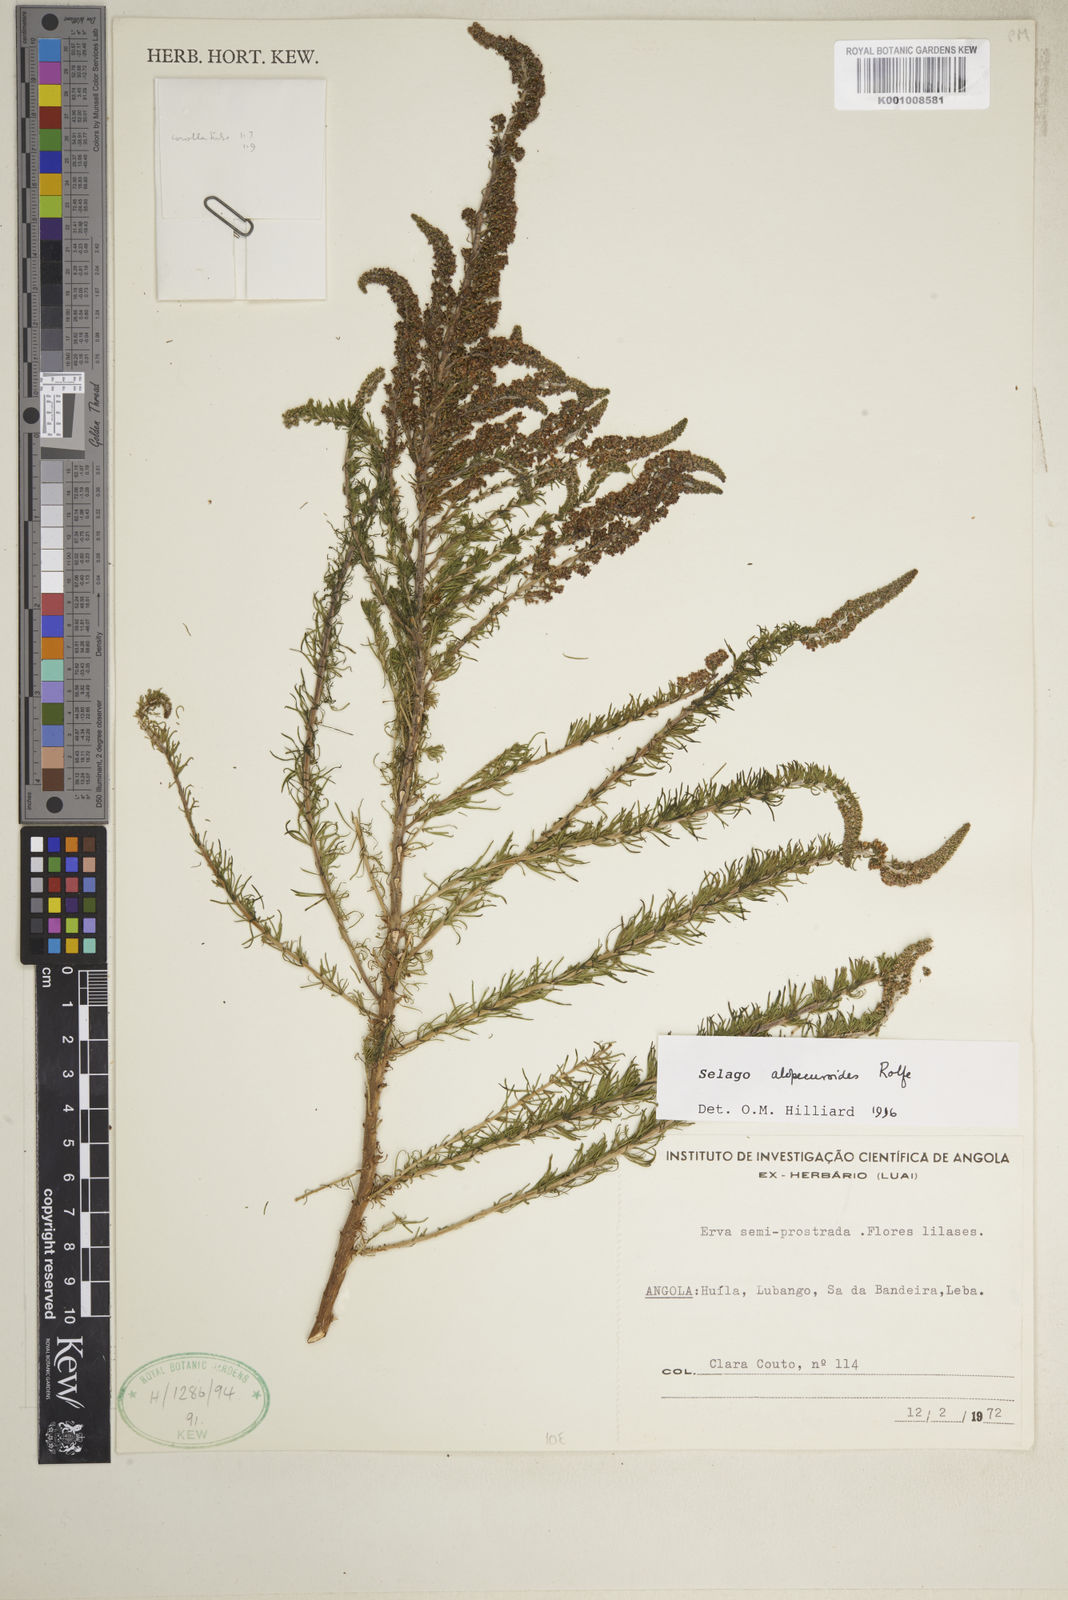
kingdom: Plantae
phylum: Tracheophyta
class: Magnoliopsida
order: Lamiales
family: Scrophulariaceae
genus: Selago
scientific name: Selago alopecuroides
